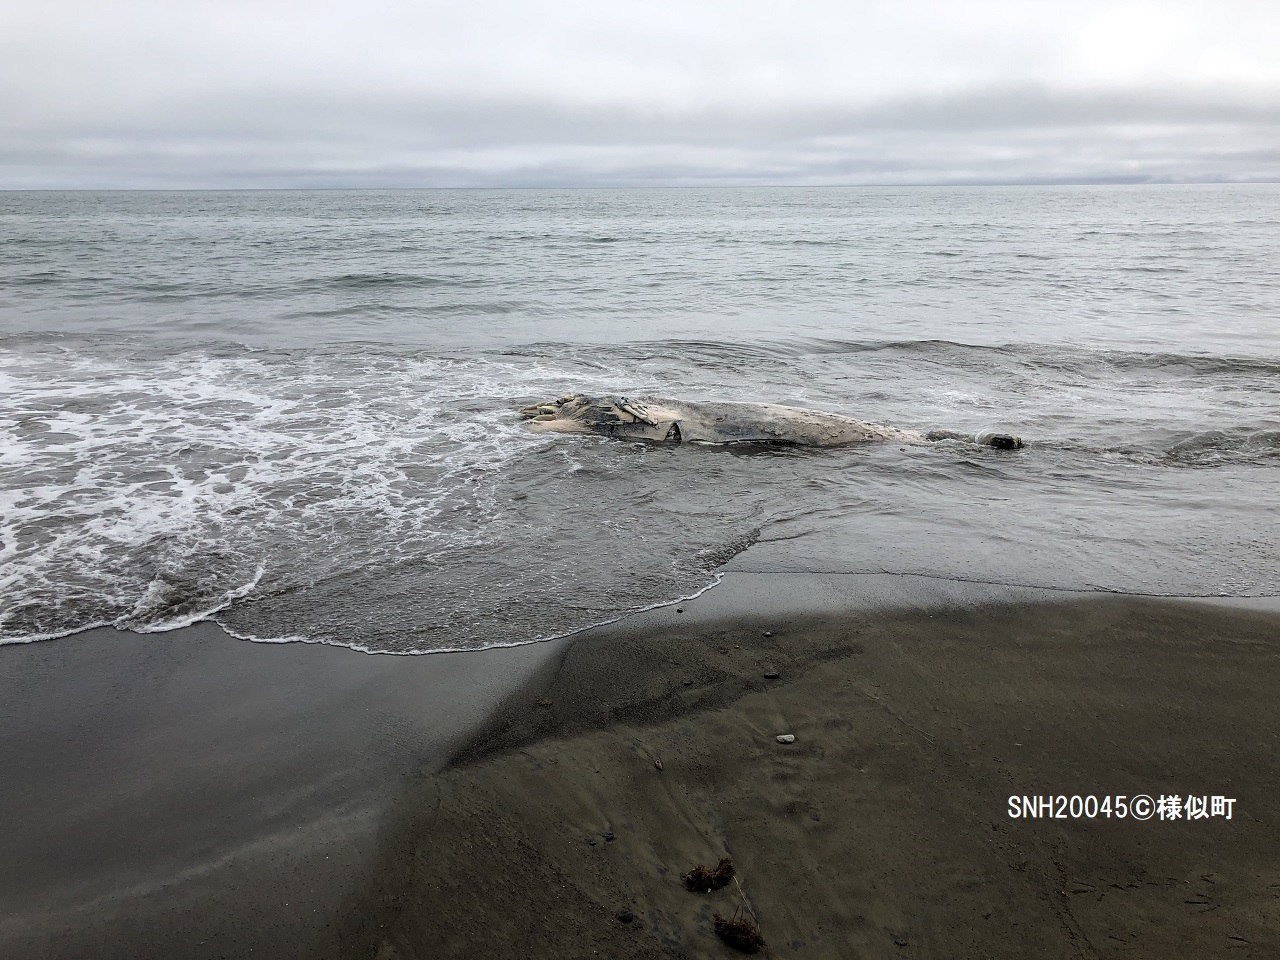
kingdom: Animalia
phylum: Chordata
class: Mammalia
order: Cetacea
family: Balaenopteridae
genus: Balaenoptera
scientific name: Balaenoptera acutorostrata
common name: Minke whale
